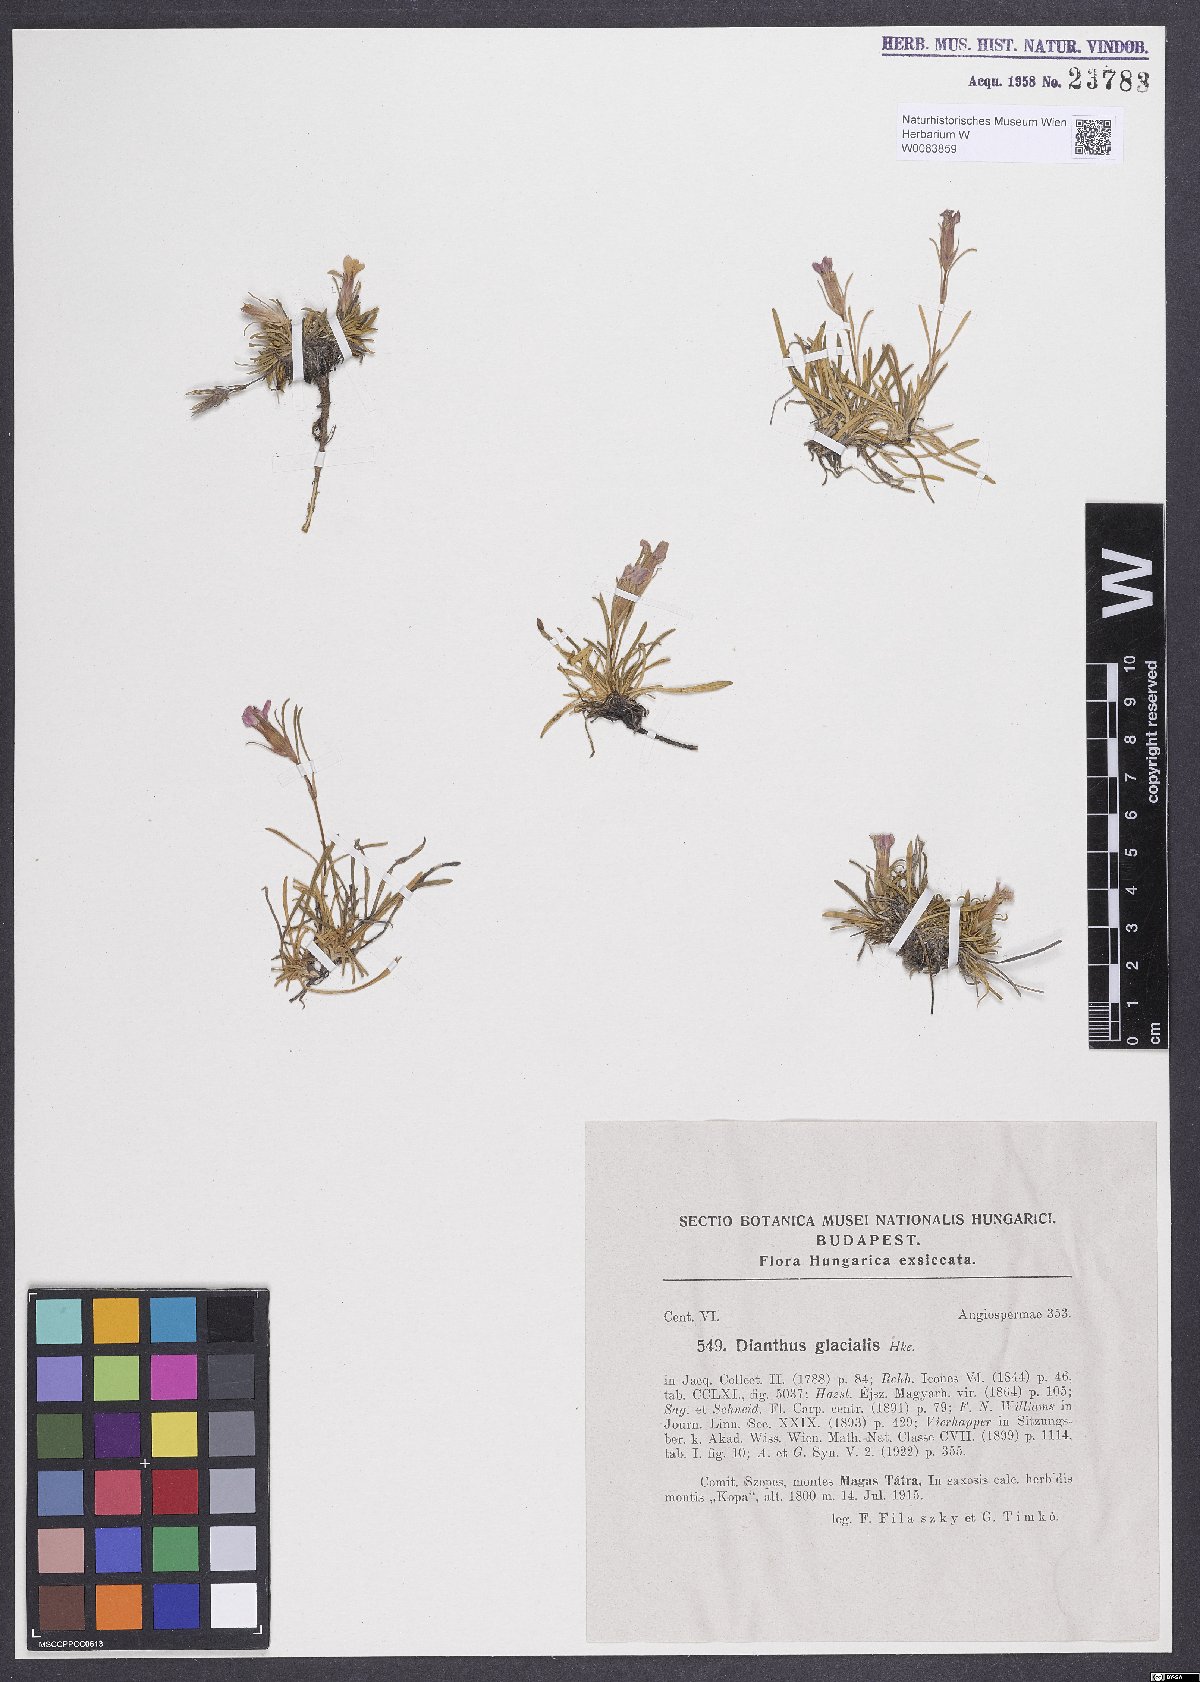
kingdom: Plantae
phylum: Tracheophyta
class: Magnoliopsida
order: Caryophyllales
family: Caryophyllaceae
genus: Dianthus
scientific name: Dianthus glacialis
